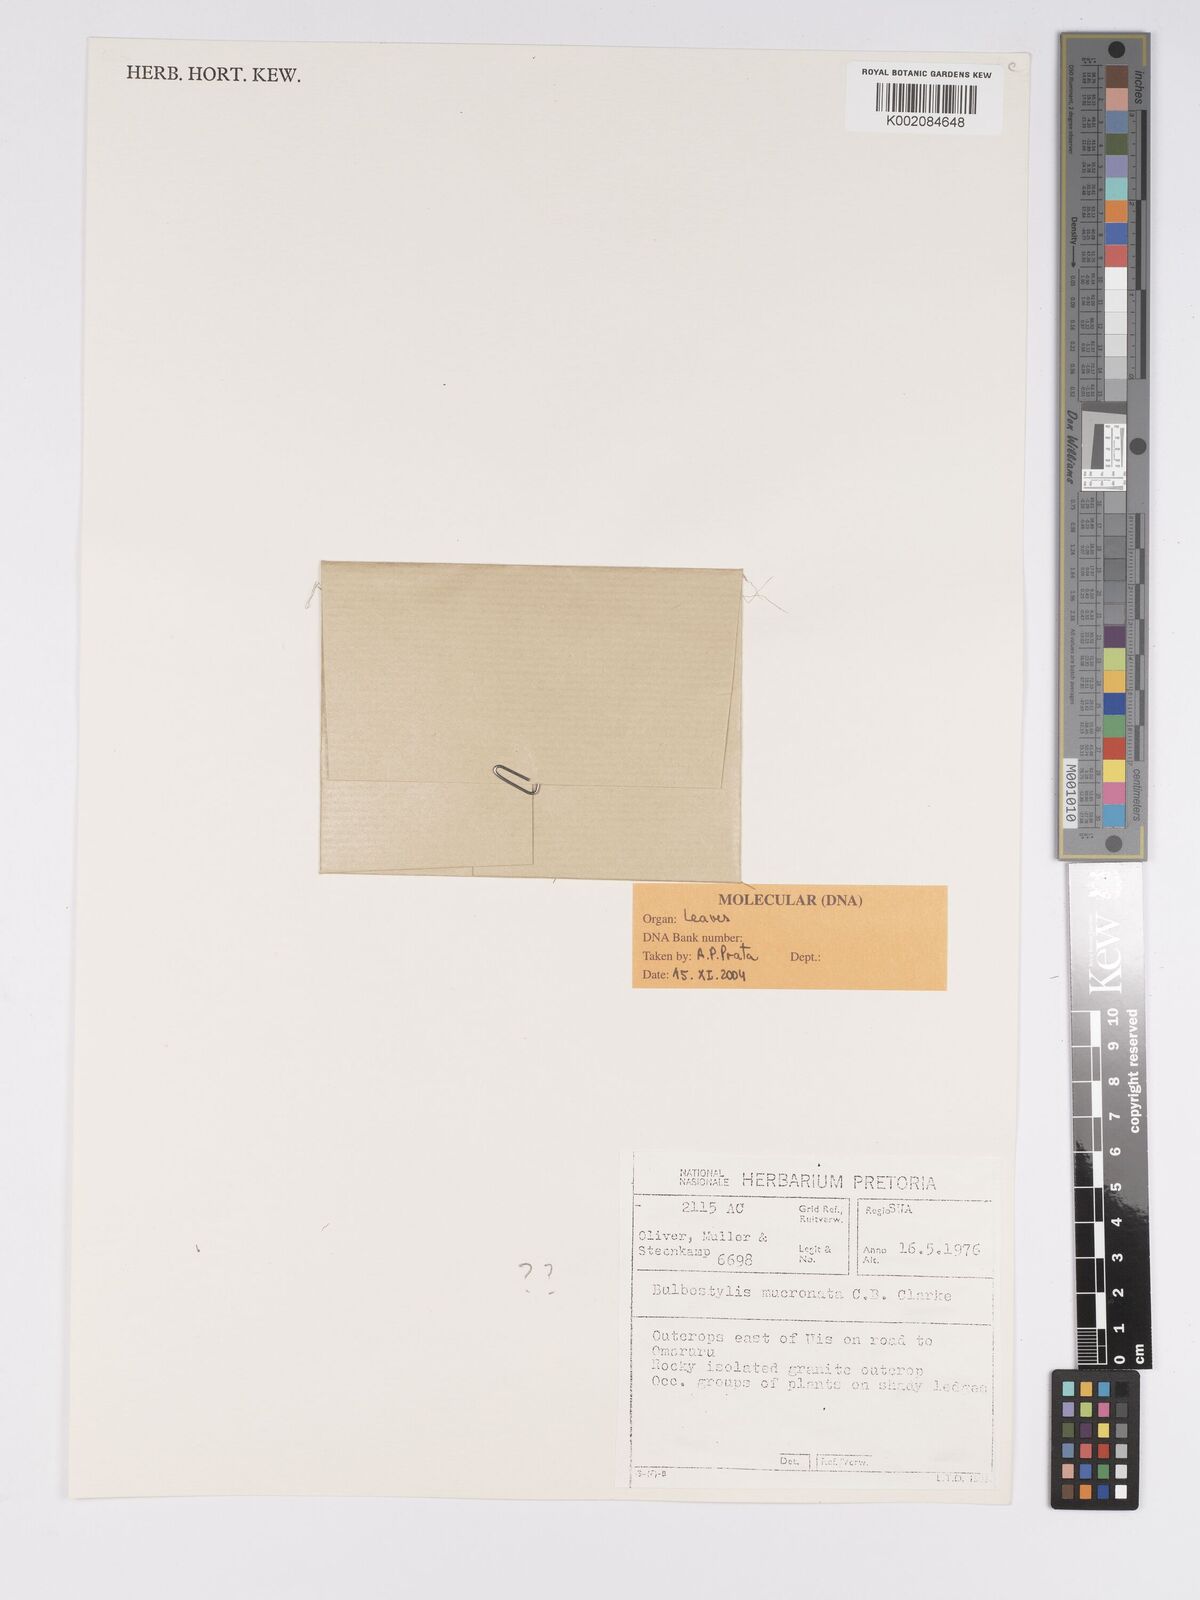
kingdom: Plantae
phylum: Tracheophyta
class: Liliopsida
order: Poales
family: Cyperaceae
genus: Bulbostylis
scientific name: Bulbostylis mucronata
